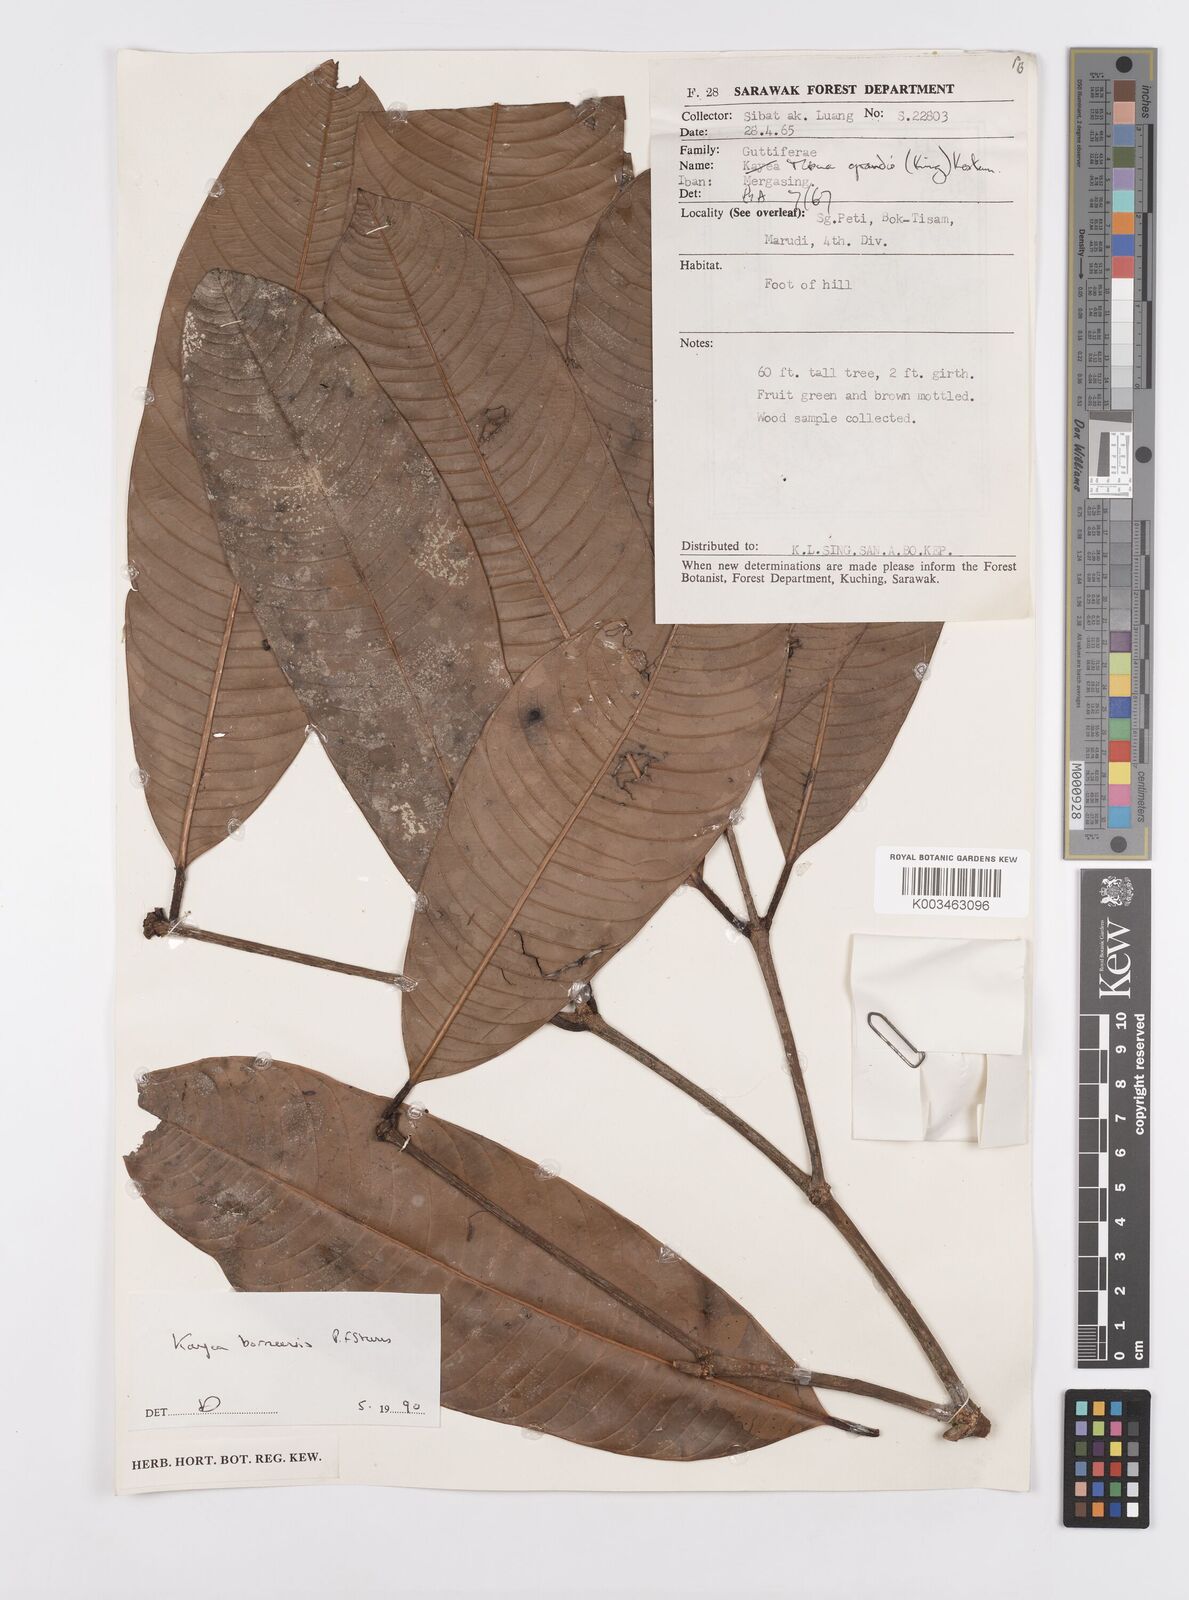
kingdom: Plantae
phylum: Tracheophyta
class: Magnoliopsida
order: Malpighiales
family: Calophyllaceae
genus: Kayea
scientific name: Kayea borneensis
